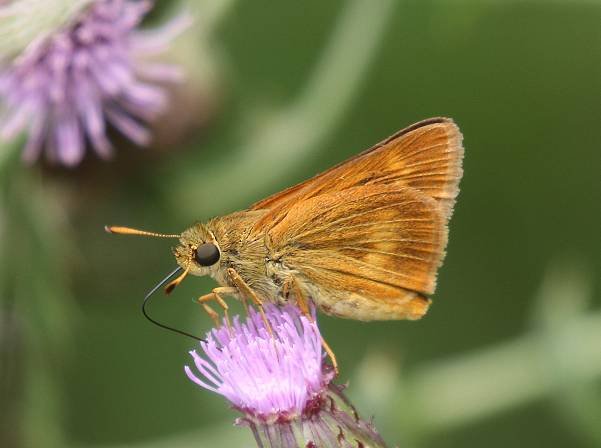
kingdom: Animalia
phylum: Arthropoda
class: Insecta
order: Lepidoptera
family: Hesperiidae
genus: Euphyes
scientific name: Euphyes conspicua
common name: Black Dash
